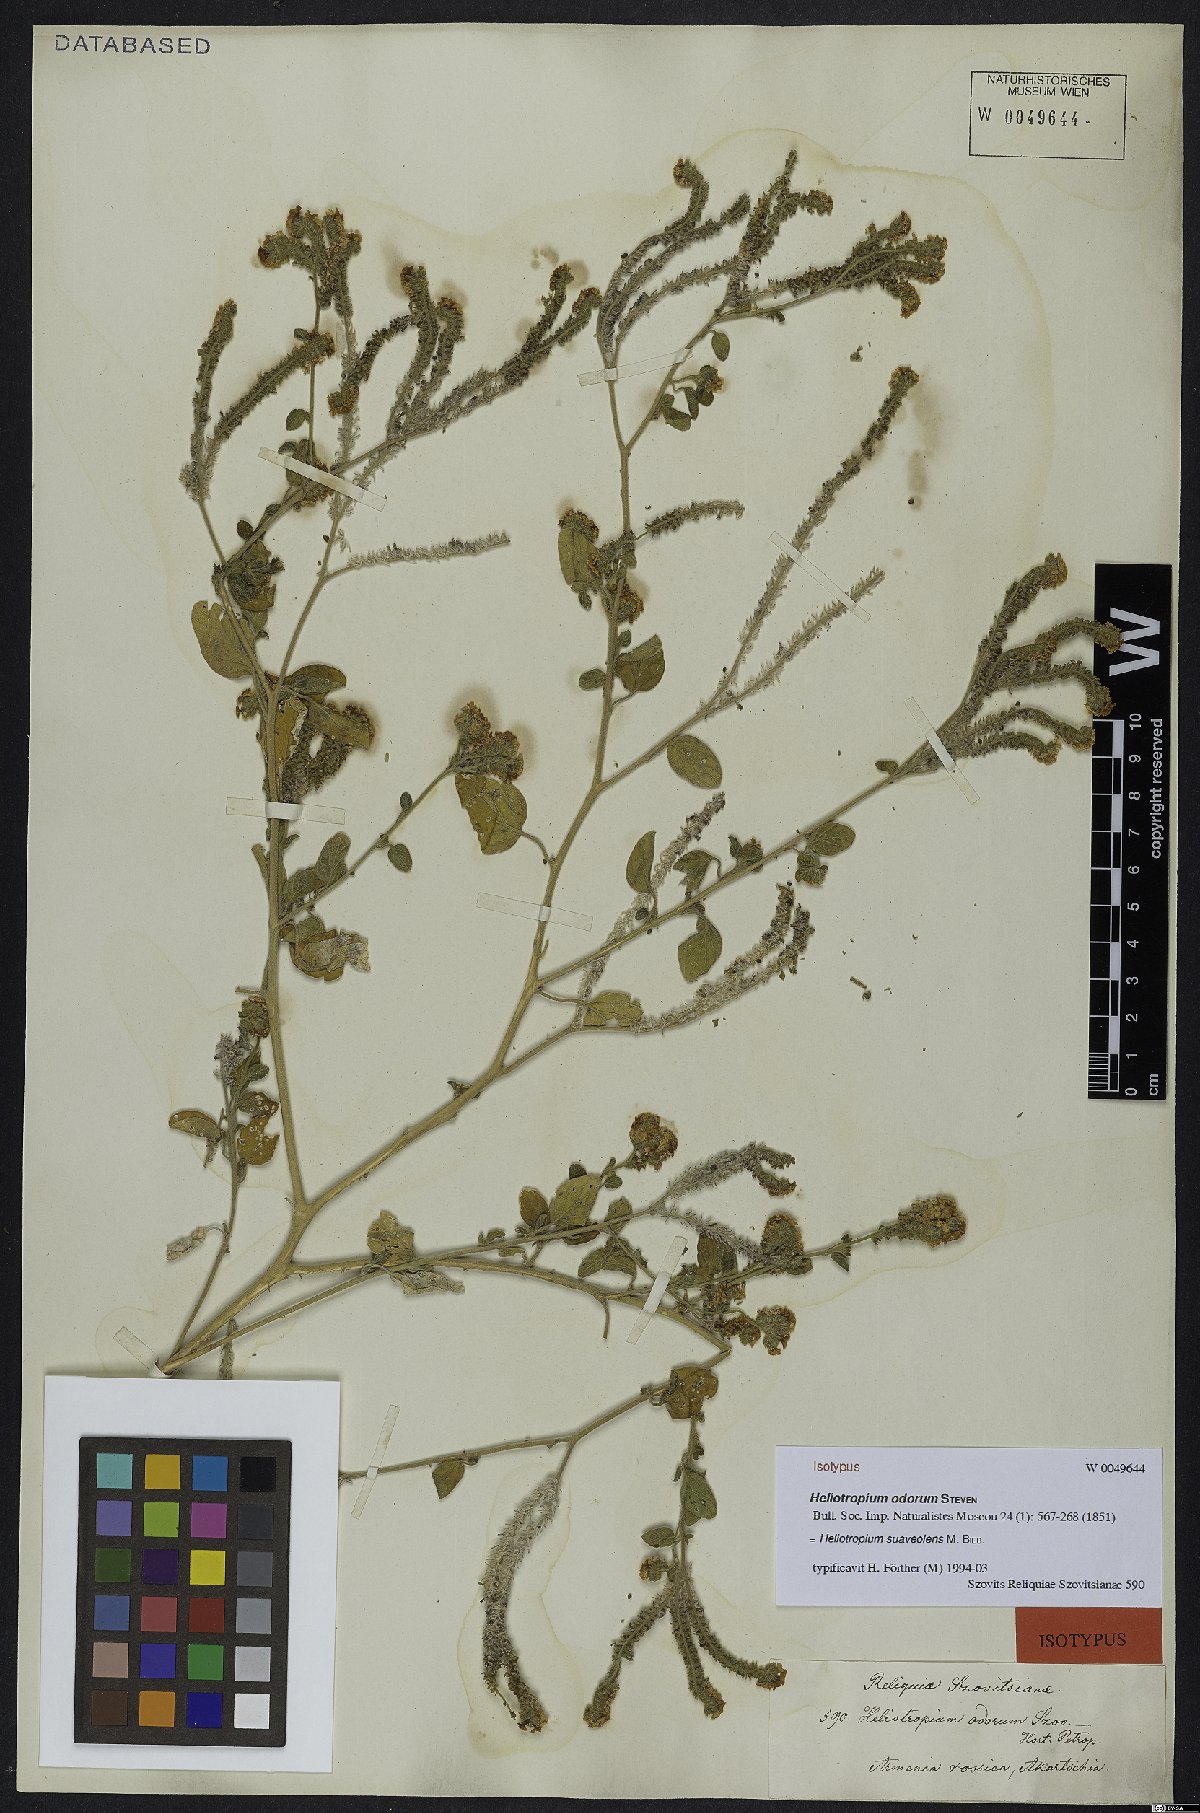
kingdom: Plantae
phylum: Tracheophyta
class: Magnoliopsida
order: Boraginales
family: Heliotropiaceae
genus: Heliotropium
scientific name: Heliotropium suaveolens
